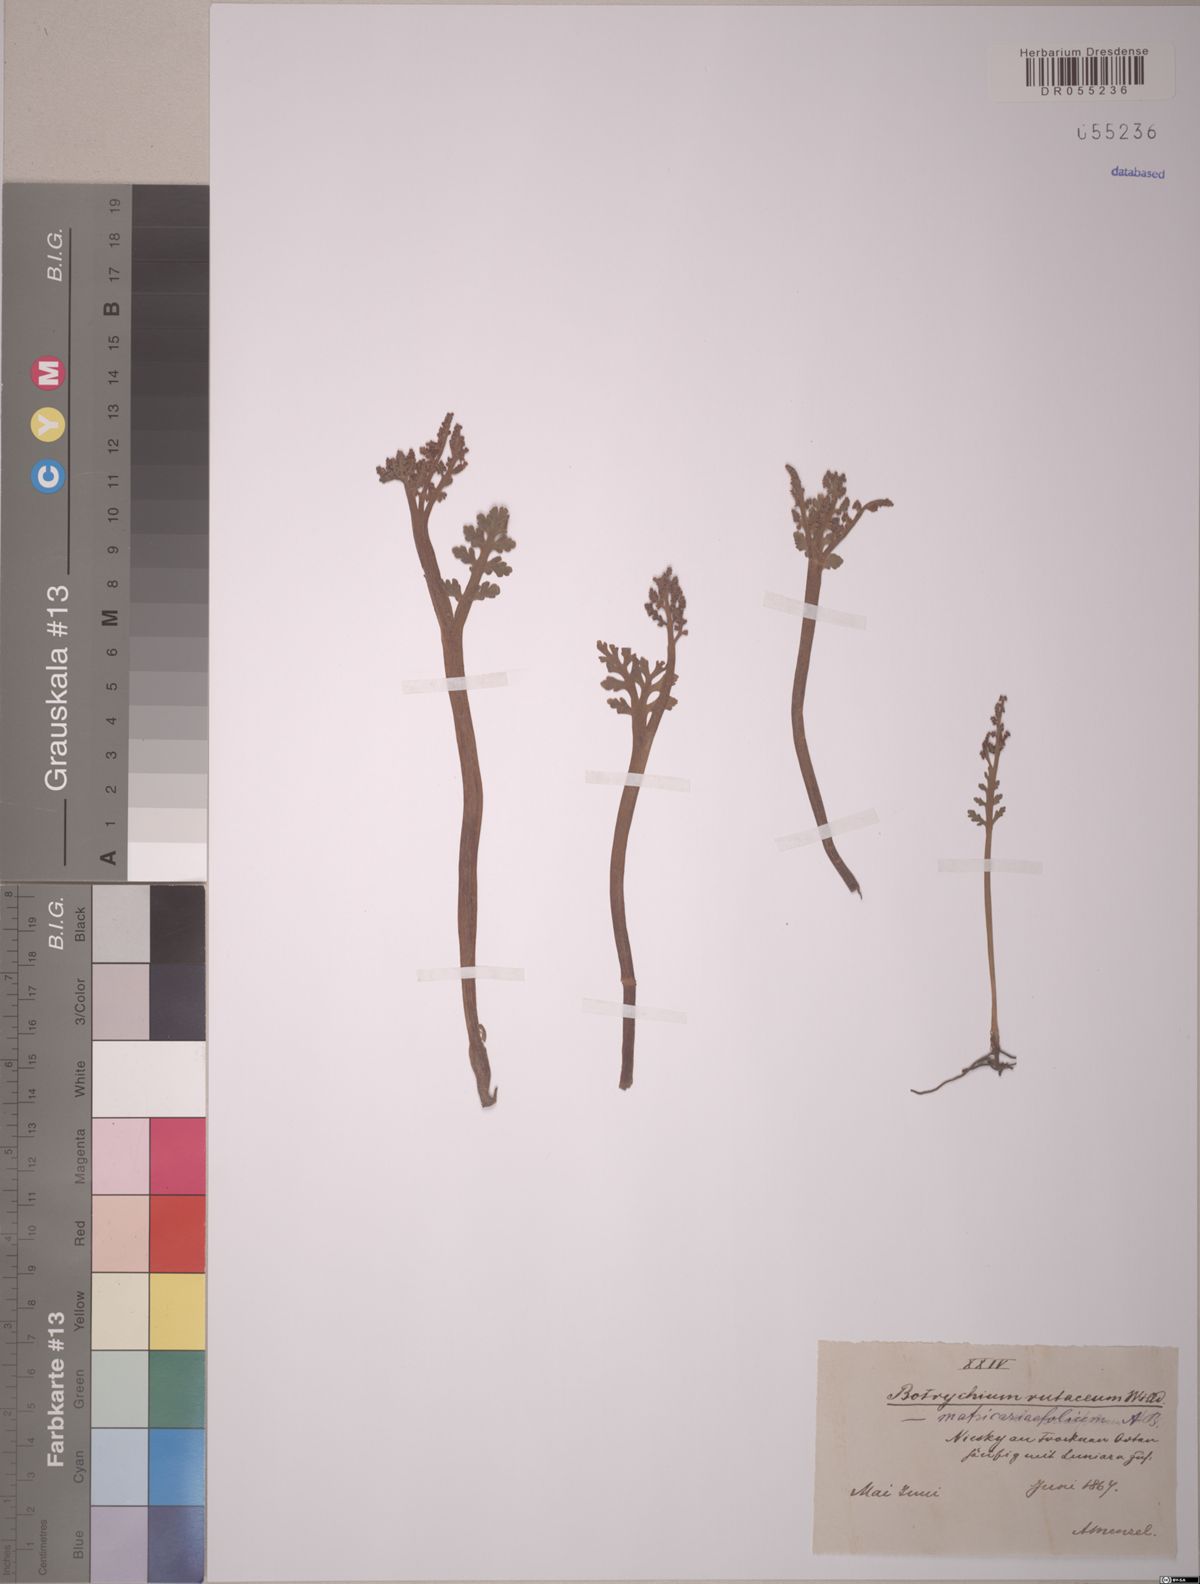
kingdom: Plantae
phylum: Tracheophyta
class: Polypodiopsida
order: Ophioglossales
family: Ophioglossaceae
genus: Botrychium
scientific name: Botrychium matricariifolium
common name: Branched moonwort
